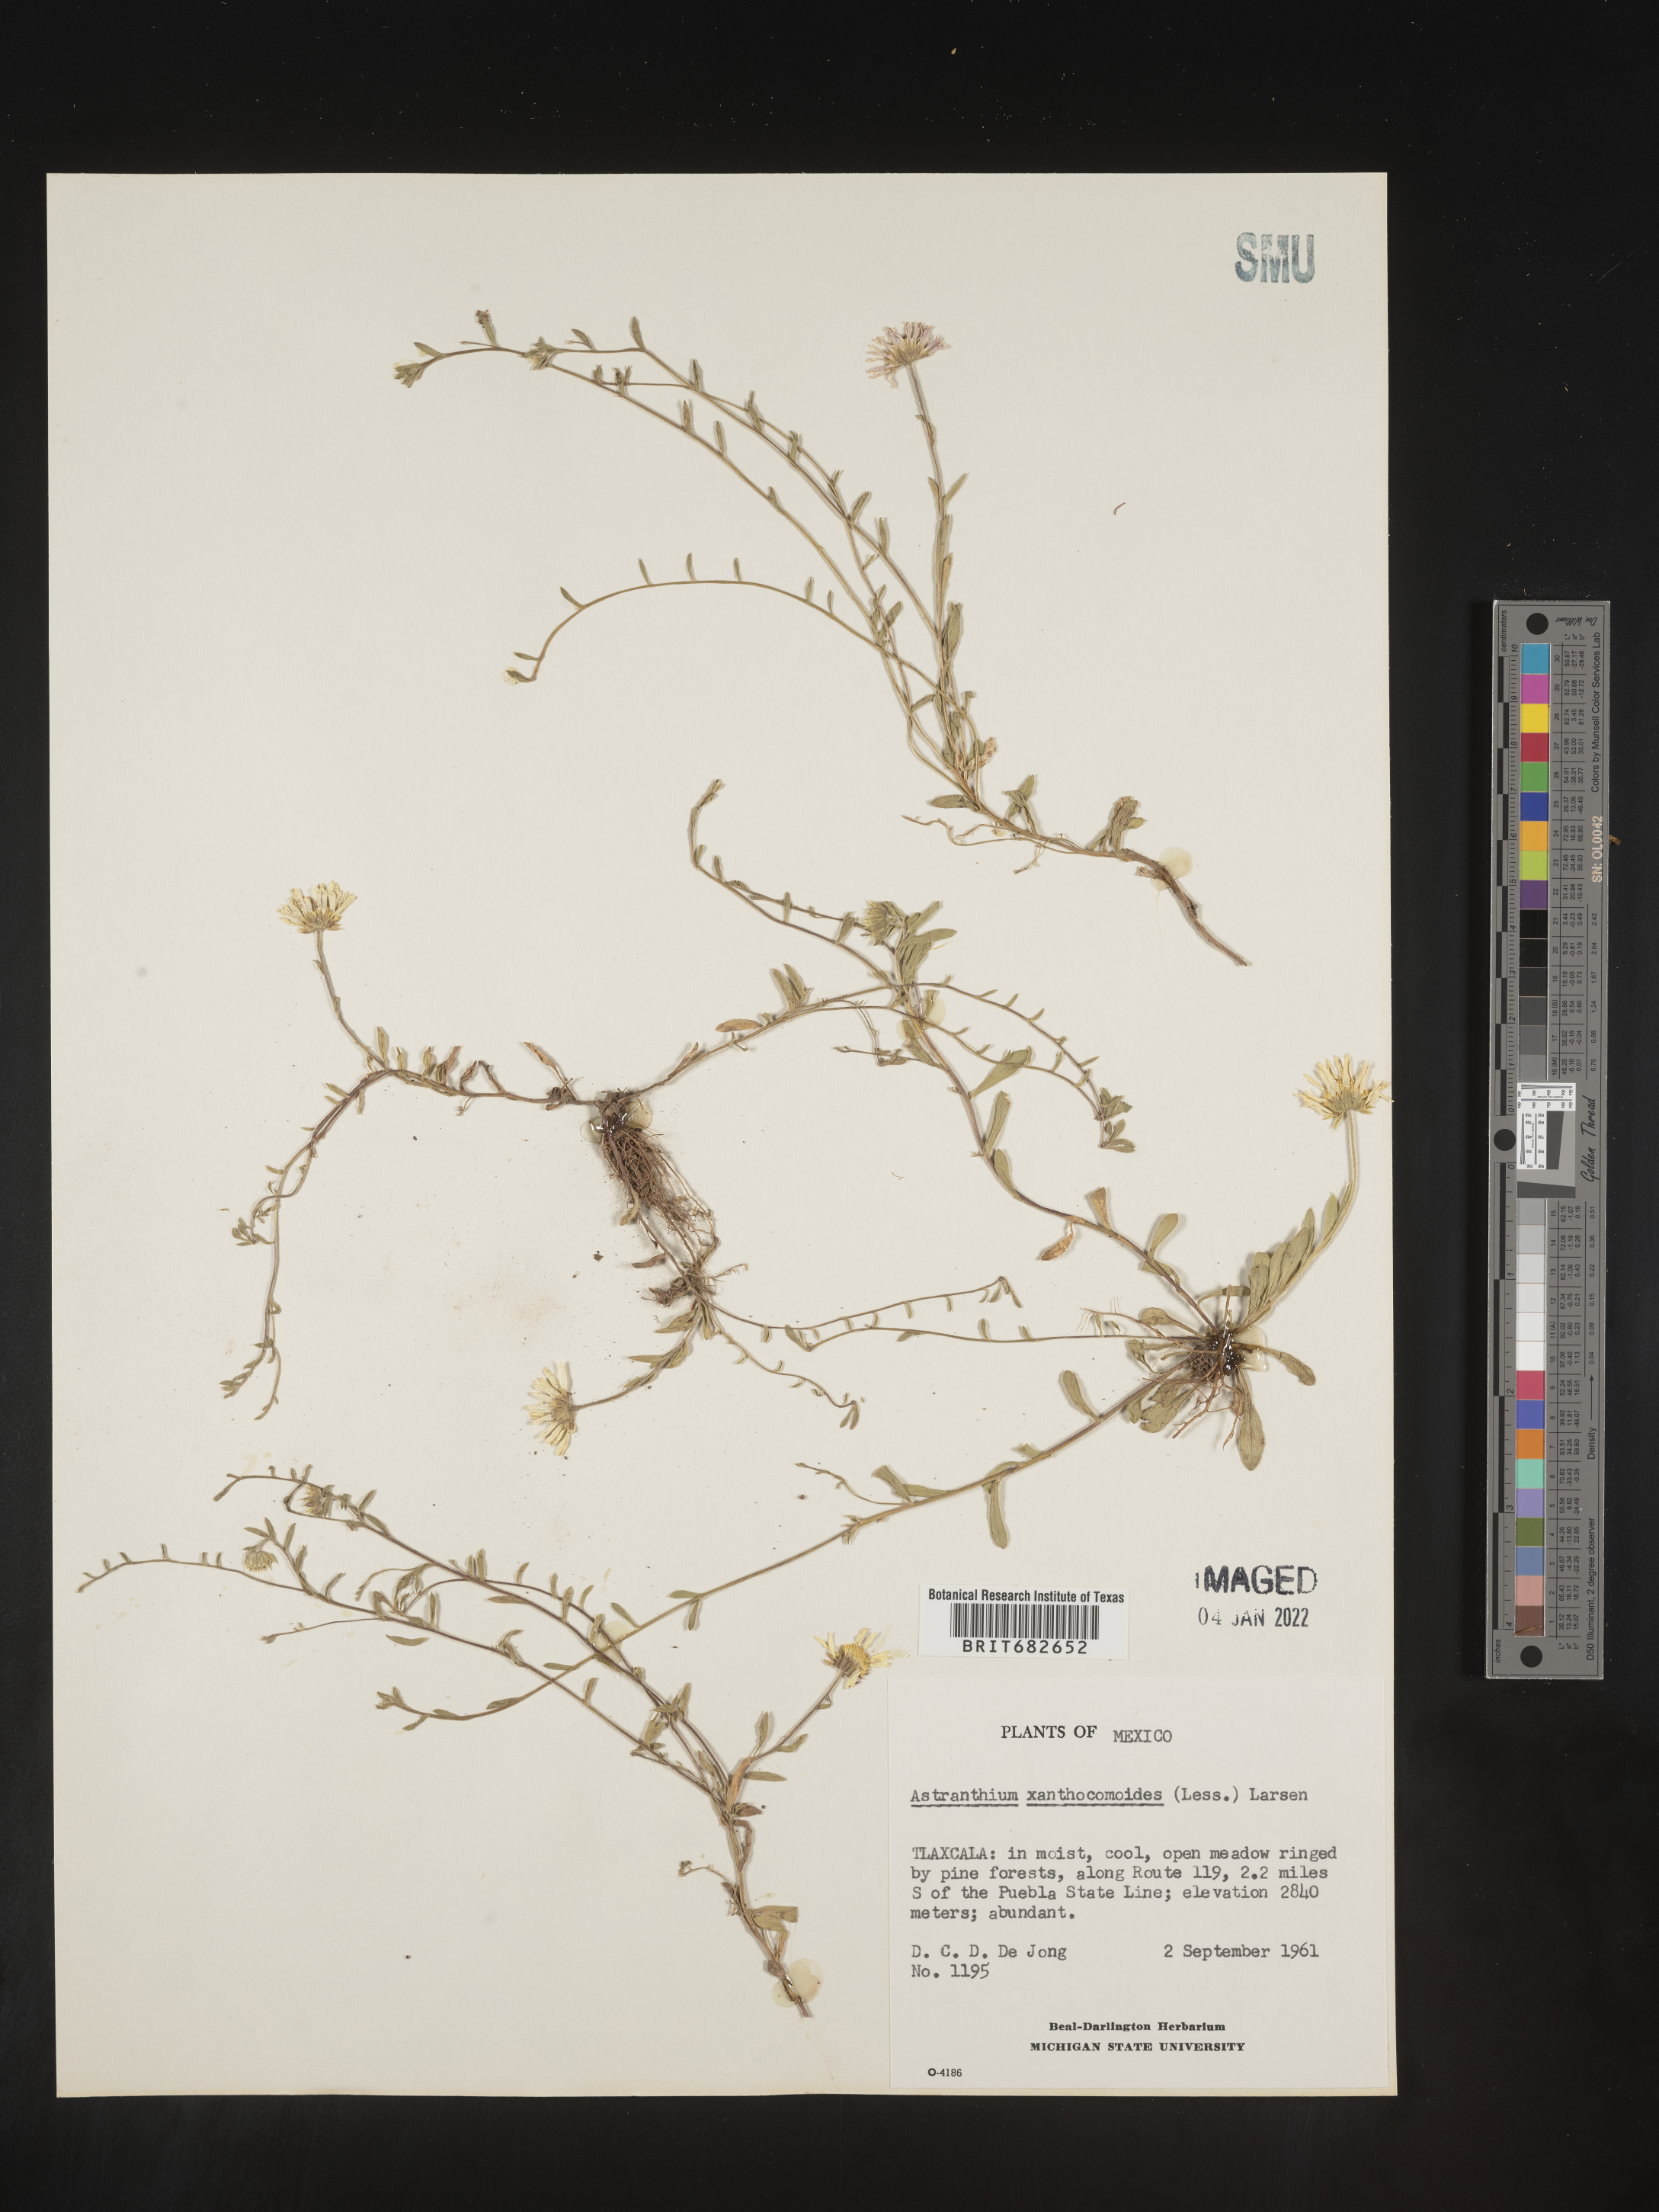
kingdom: Plantae
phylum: Tracheophyta
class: Magnoliopsida
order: Asterales
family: Asteraceae
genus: Astranthium
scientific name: Astranthium
